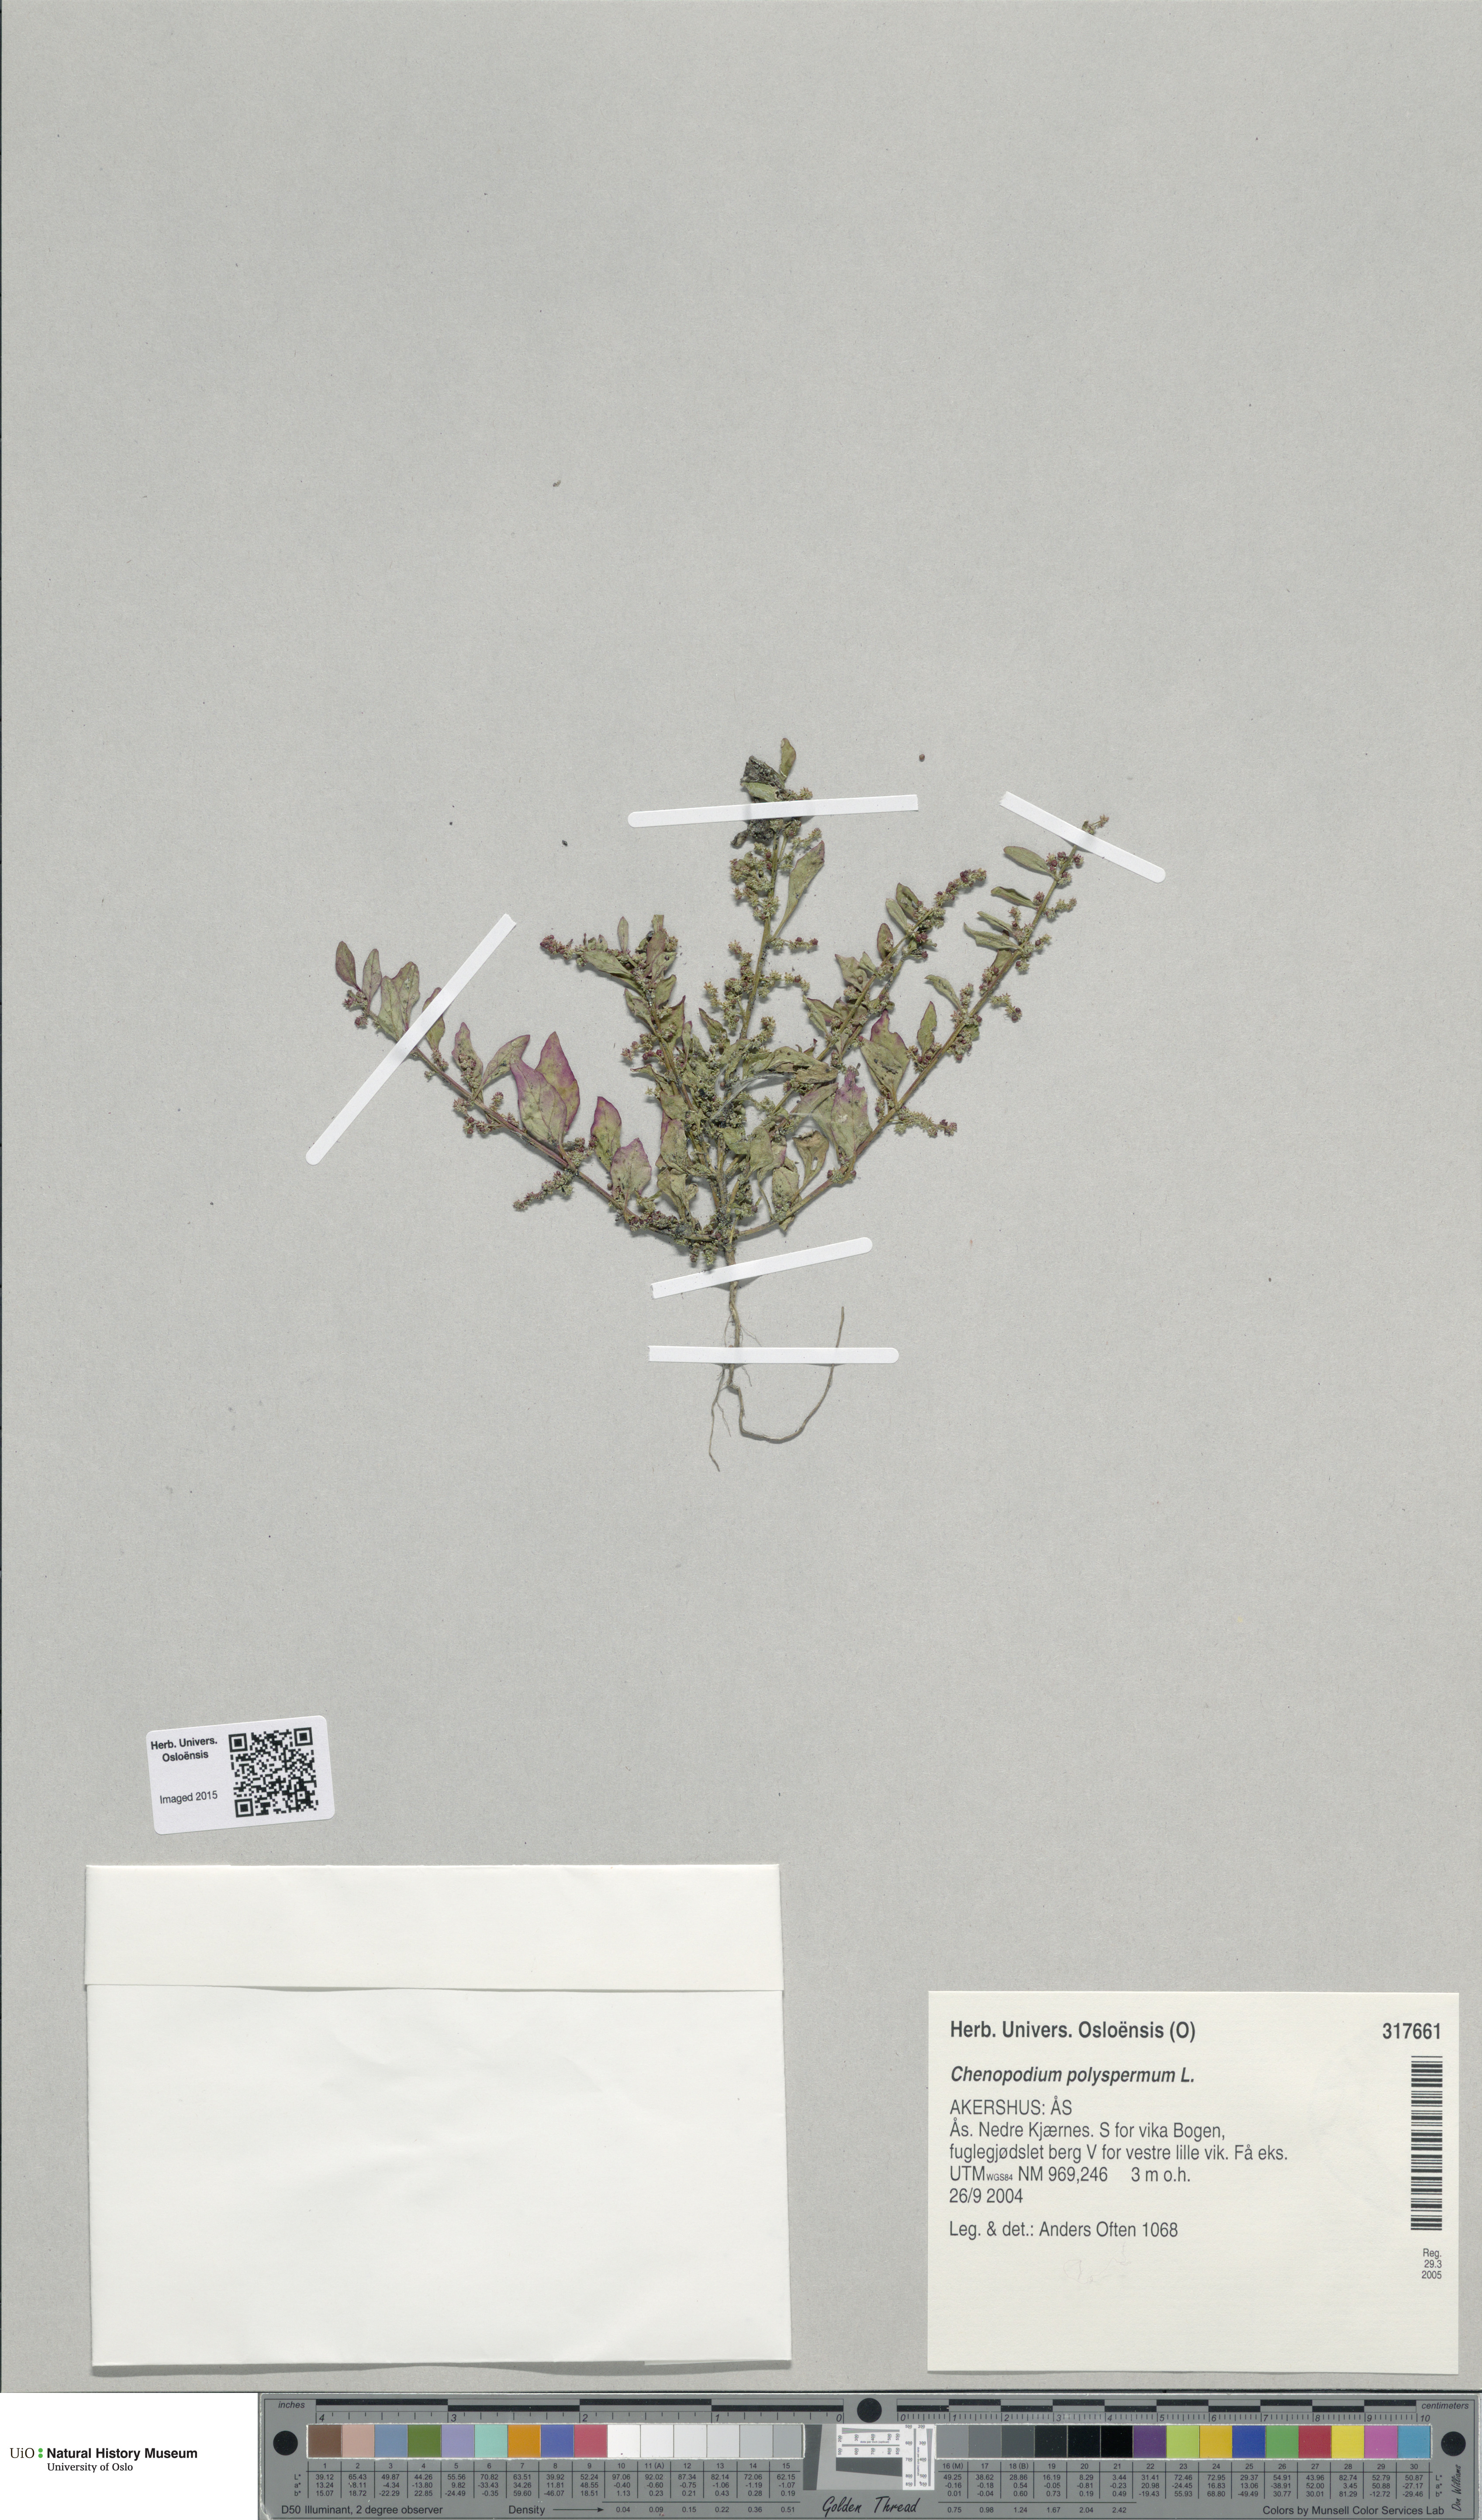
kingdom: Plantae
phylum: Tracheophyta
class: Magnoliopsida
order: Caryophyllales
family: Amaranthaceae
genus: Lipandra
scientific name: Lipandra polysperma
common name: Many-seed goosefoot
